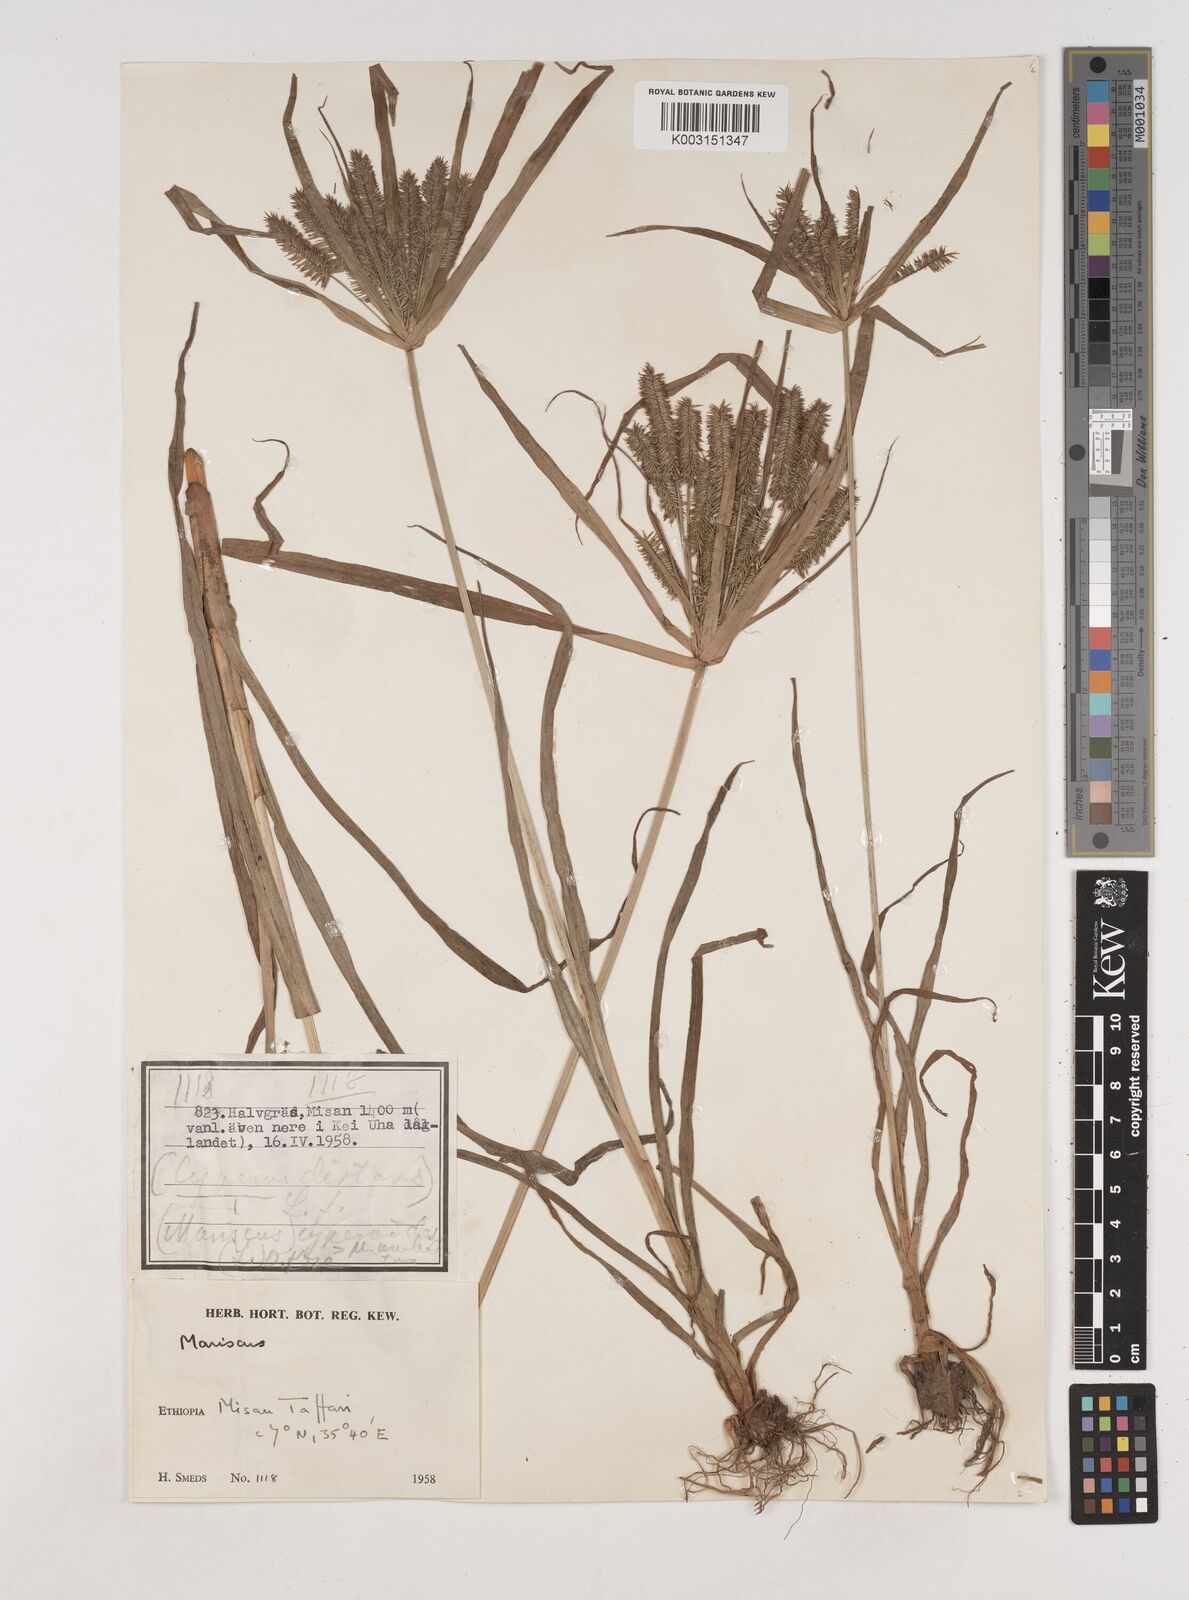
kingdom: Plantae
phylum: Tracheophyta
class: Liliopsida
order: Poales
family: Cyperaceae
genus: Cyperus
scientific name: Cyperus cyperoides
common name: Pacific island flat sedge
